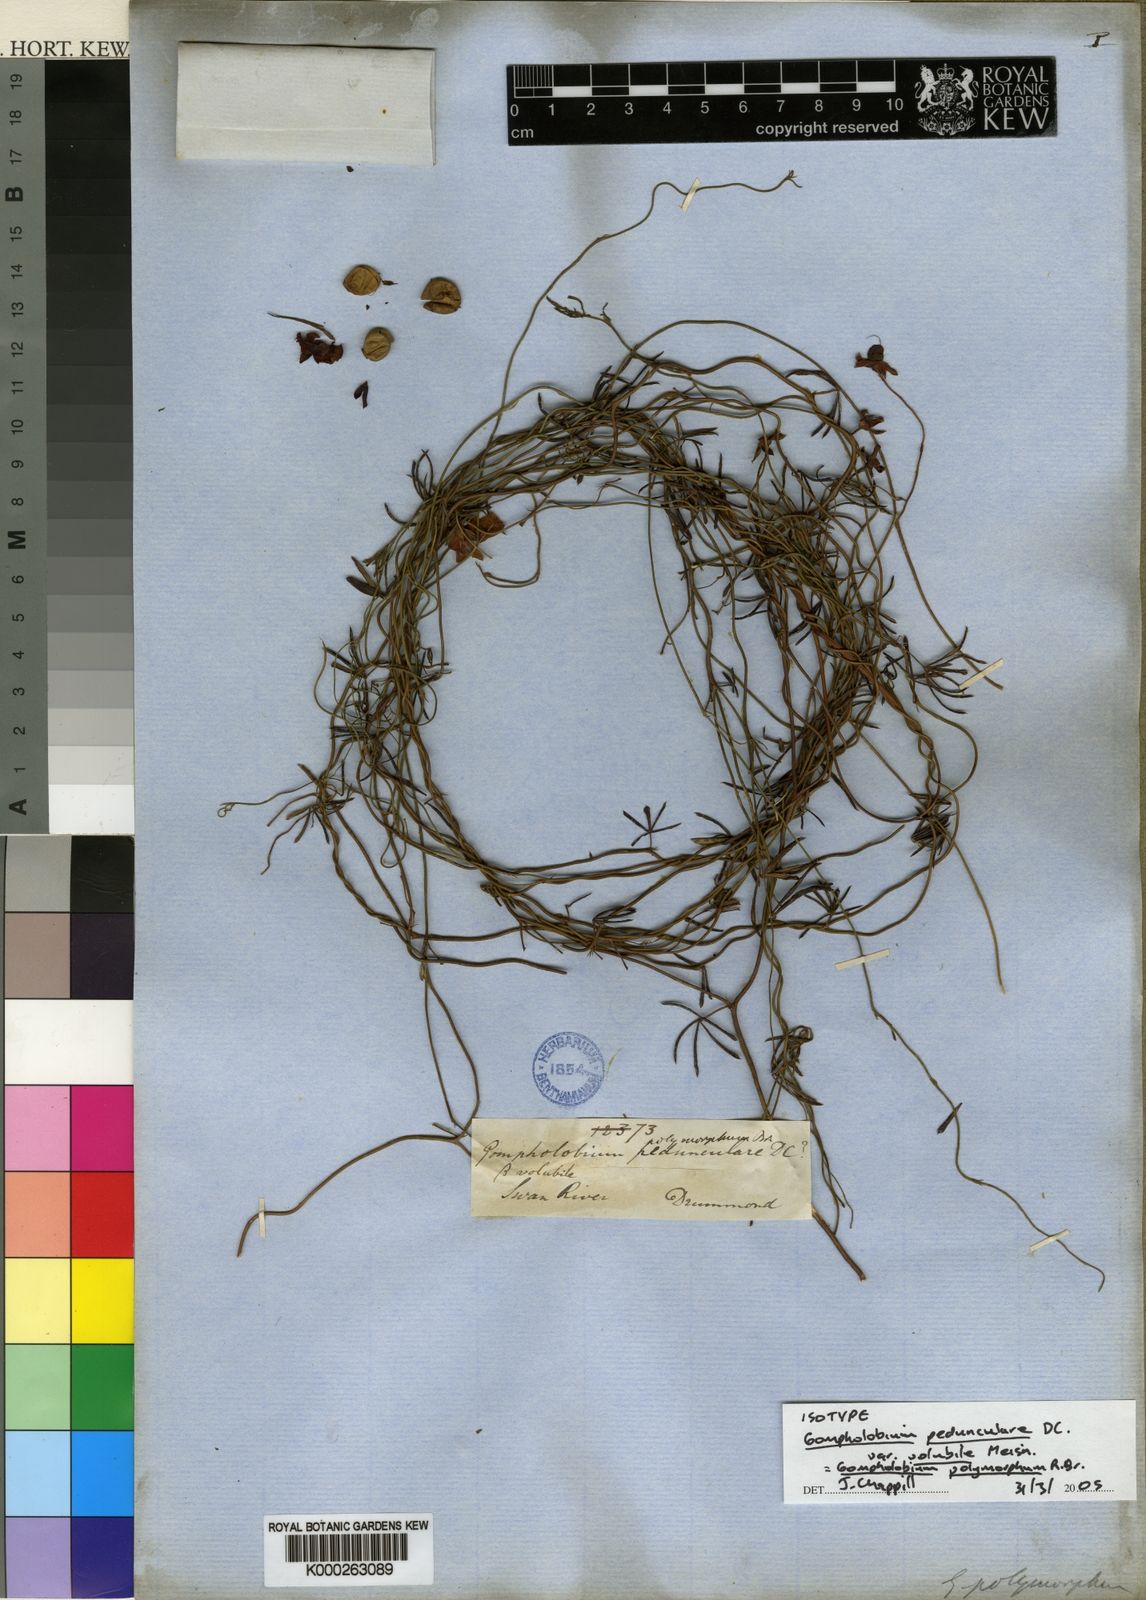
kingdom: Plantae
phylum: Tracheophyta
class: Magnoliopsida
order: Fabales
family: Fabaceae
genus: Gompholobium
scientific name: Gompholobium polymorphum
